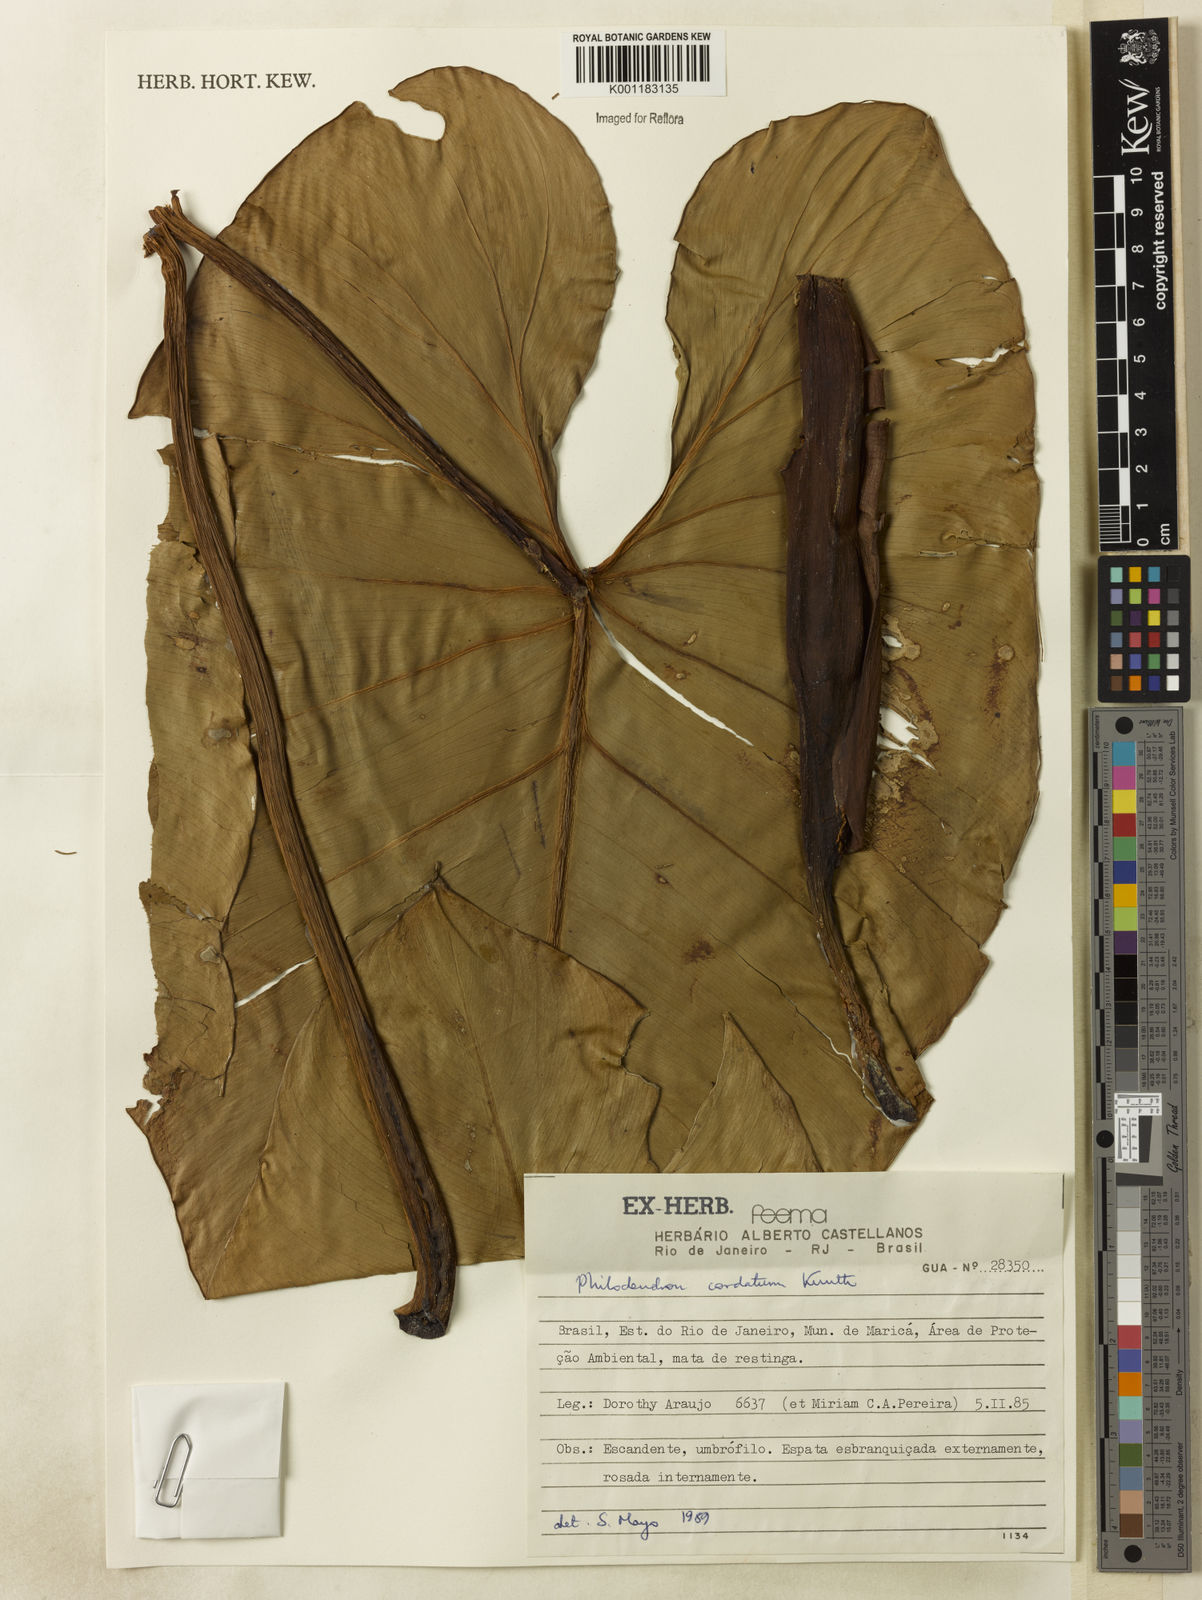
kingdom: Plantae
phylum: Tracheophyta
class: Liliopsida
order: Alismatales
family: Araceae
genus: Philodendron
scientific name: Philodendron cordatum
